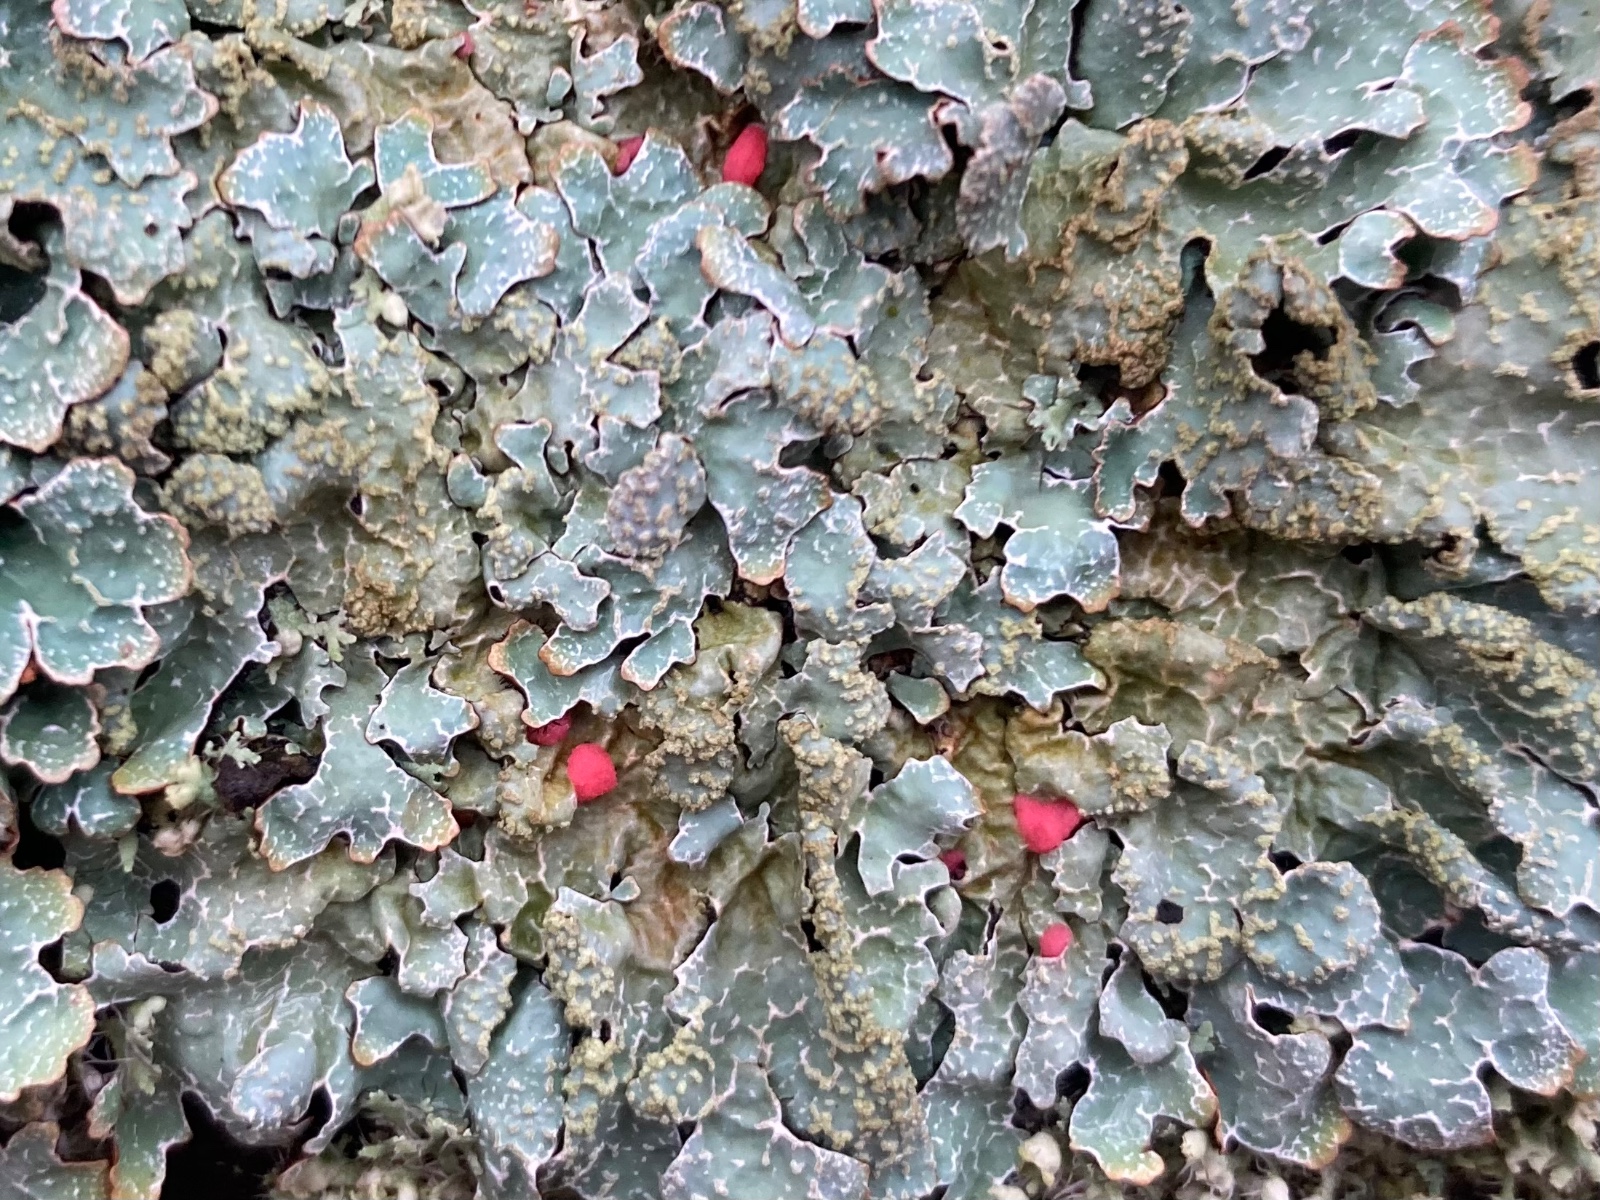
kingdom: Fungi
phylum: Ascomycota
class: Sordariomycetes
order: Hypocreales
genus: Illosporiopsis
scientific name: Illosporiopsis christiansenii
